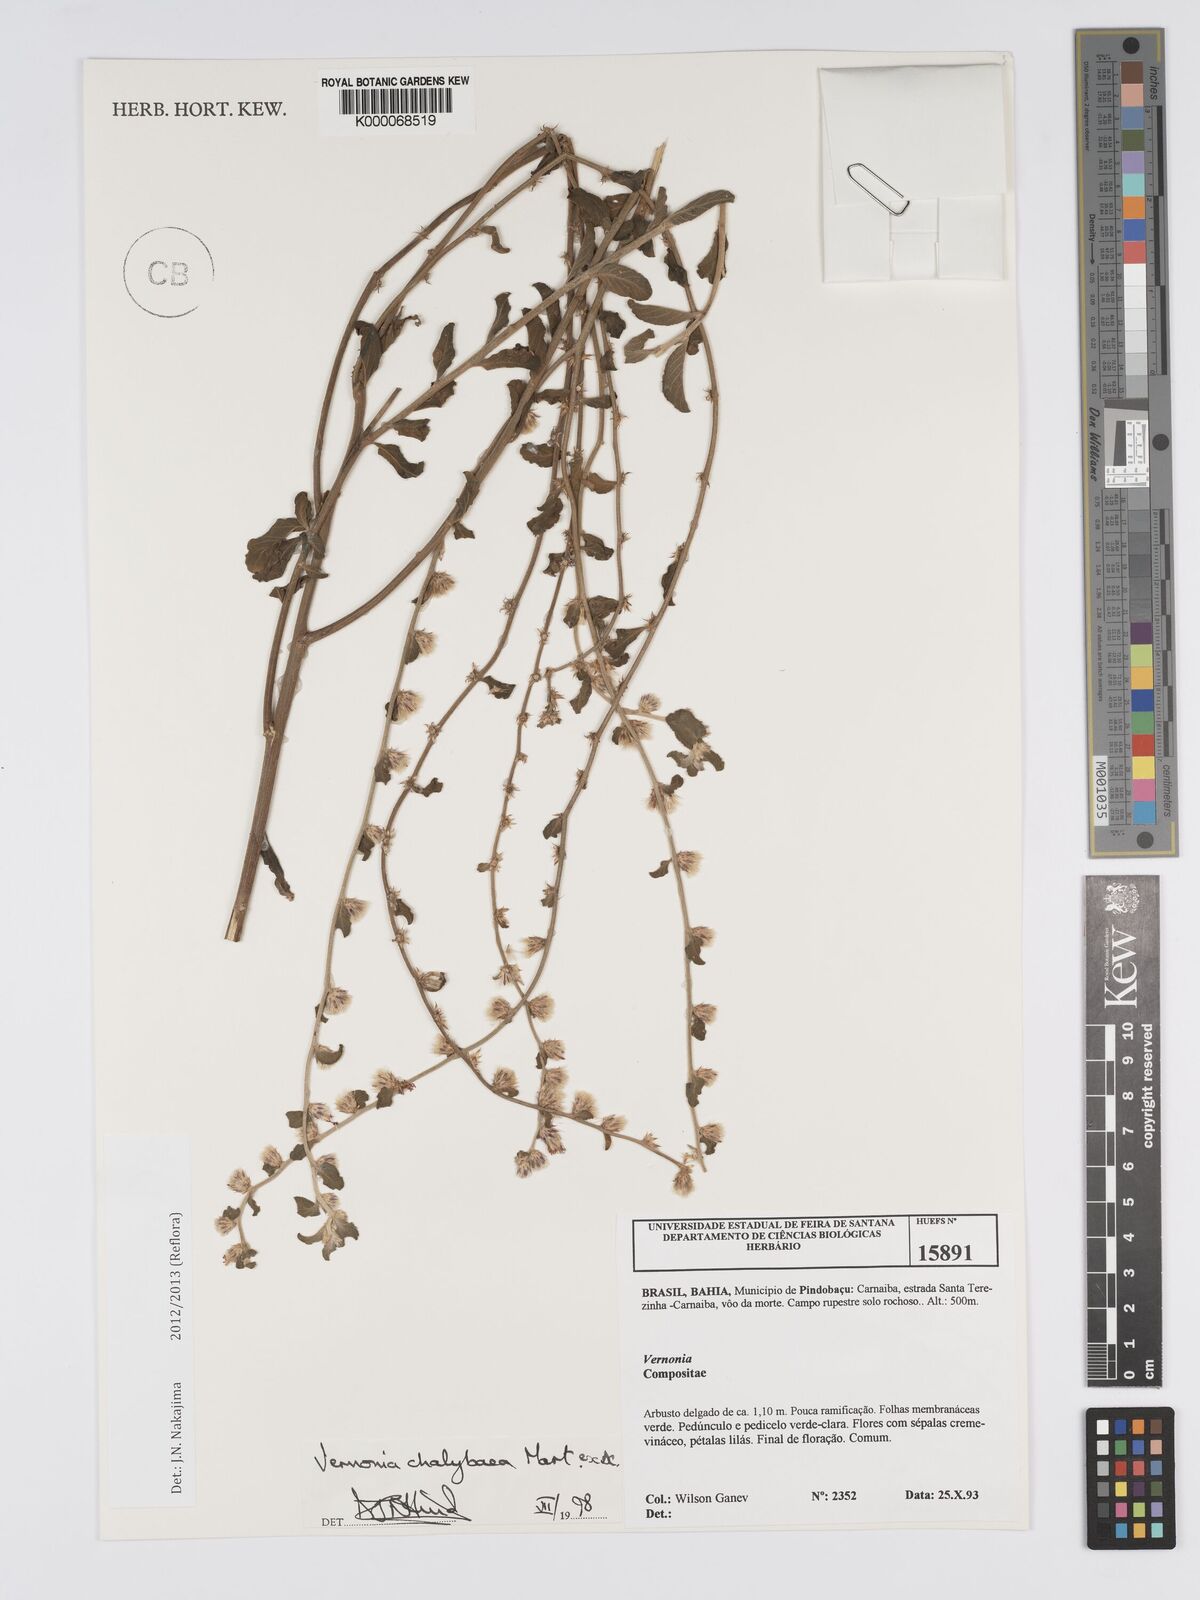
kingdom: Plantae
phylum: Tracheophyta
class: Magnoliopsida
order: Asterales
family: Asteraceae
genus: Lepidaploa
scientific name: Lepidaploa chalybaea
